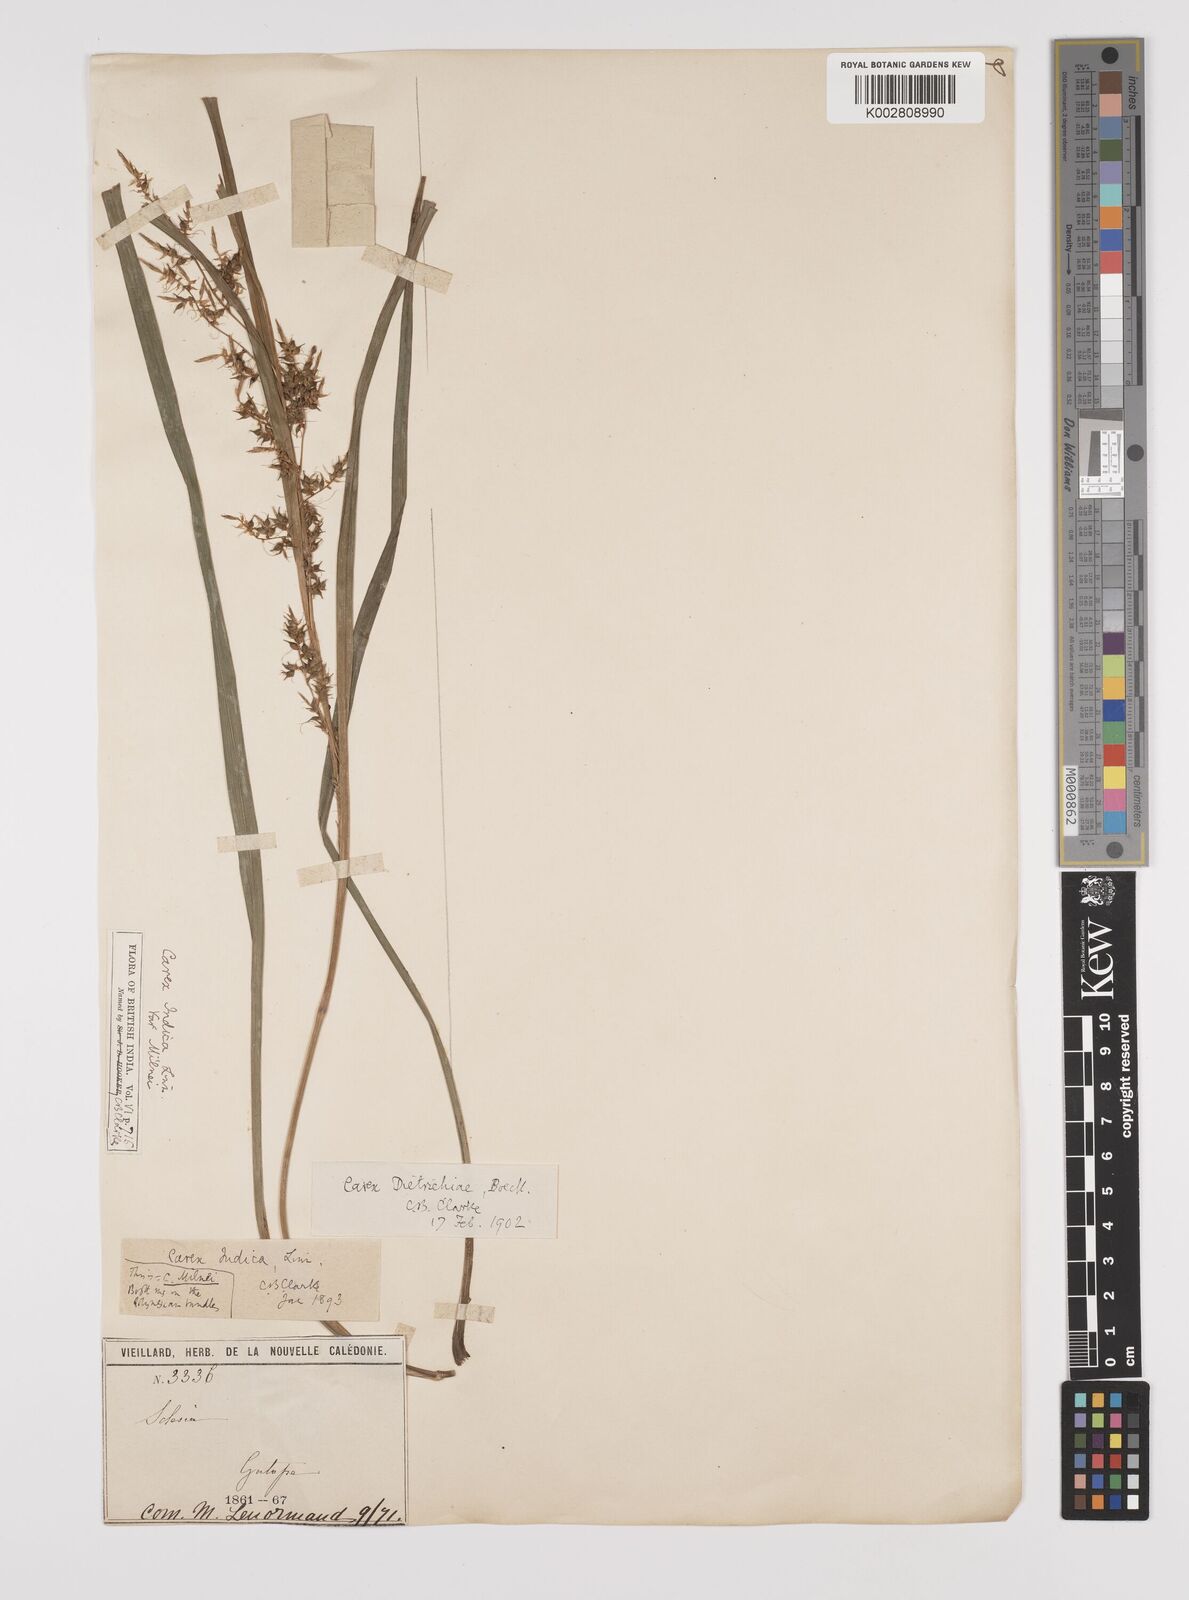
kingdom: Plantae
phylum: Tracheophyta
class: Liliopsida
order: Poales
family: Cyperaceae
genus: Carex
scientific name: Carex indica
